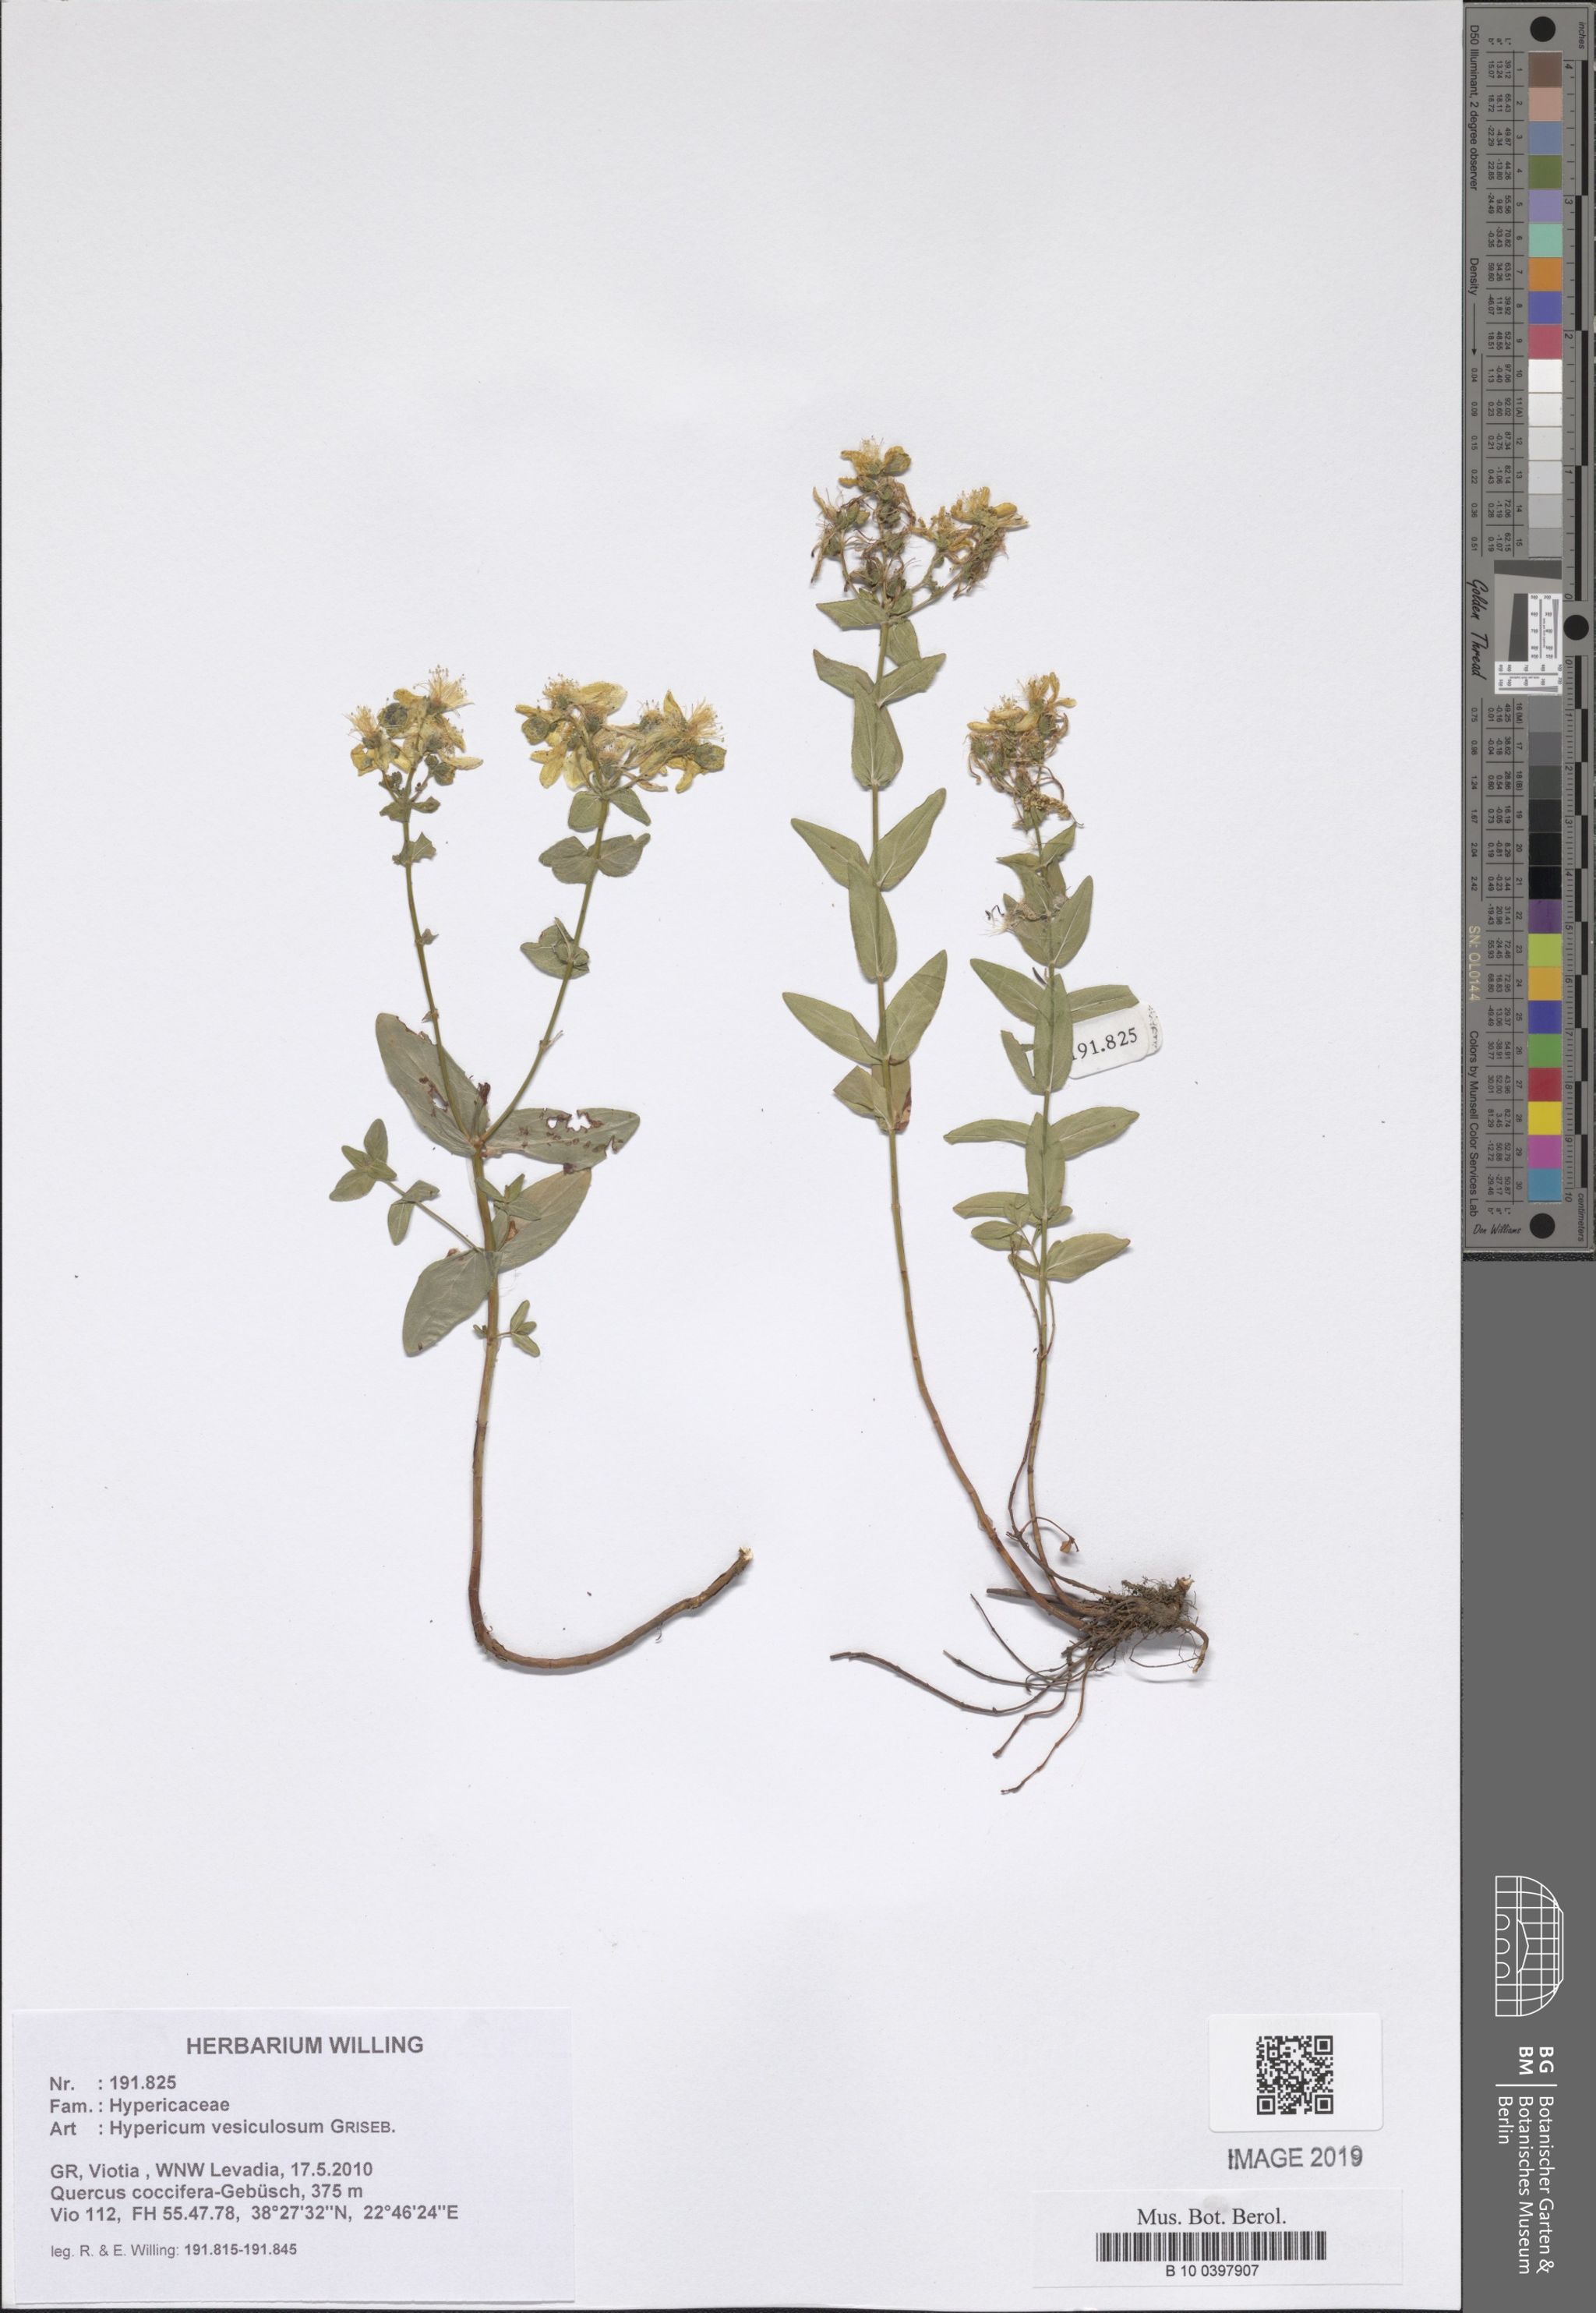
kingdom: Plantae
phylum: Tracheophyta
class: Magnoliopsida
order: Malpighiales
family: Hypericaceae
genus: Hypericum
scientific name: Hypericum vesiculosum
